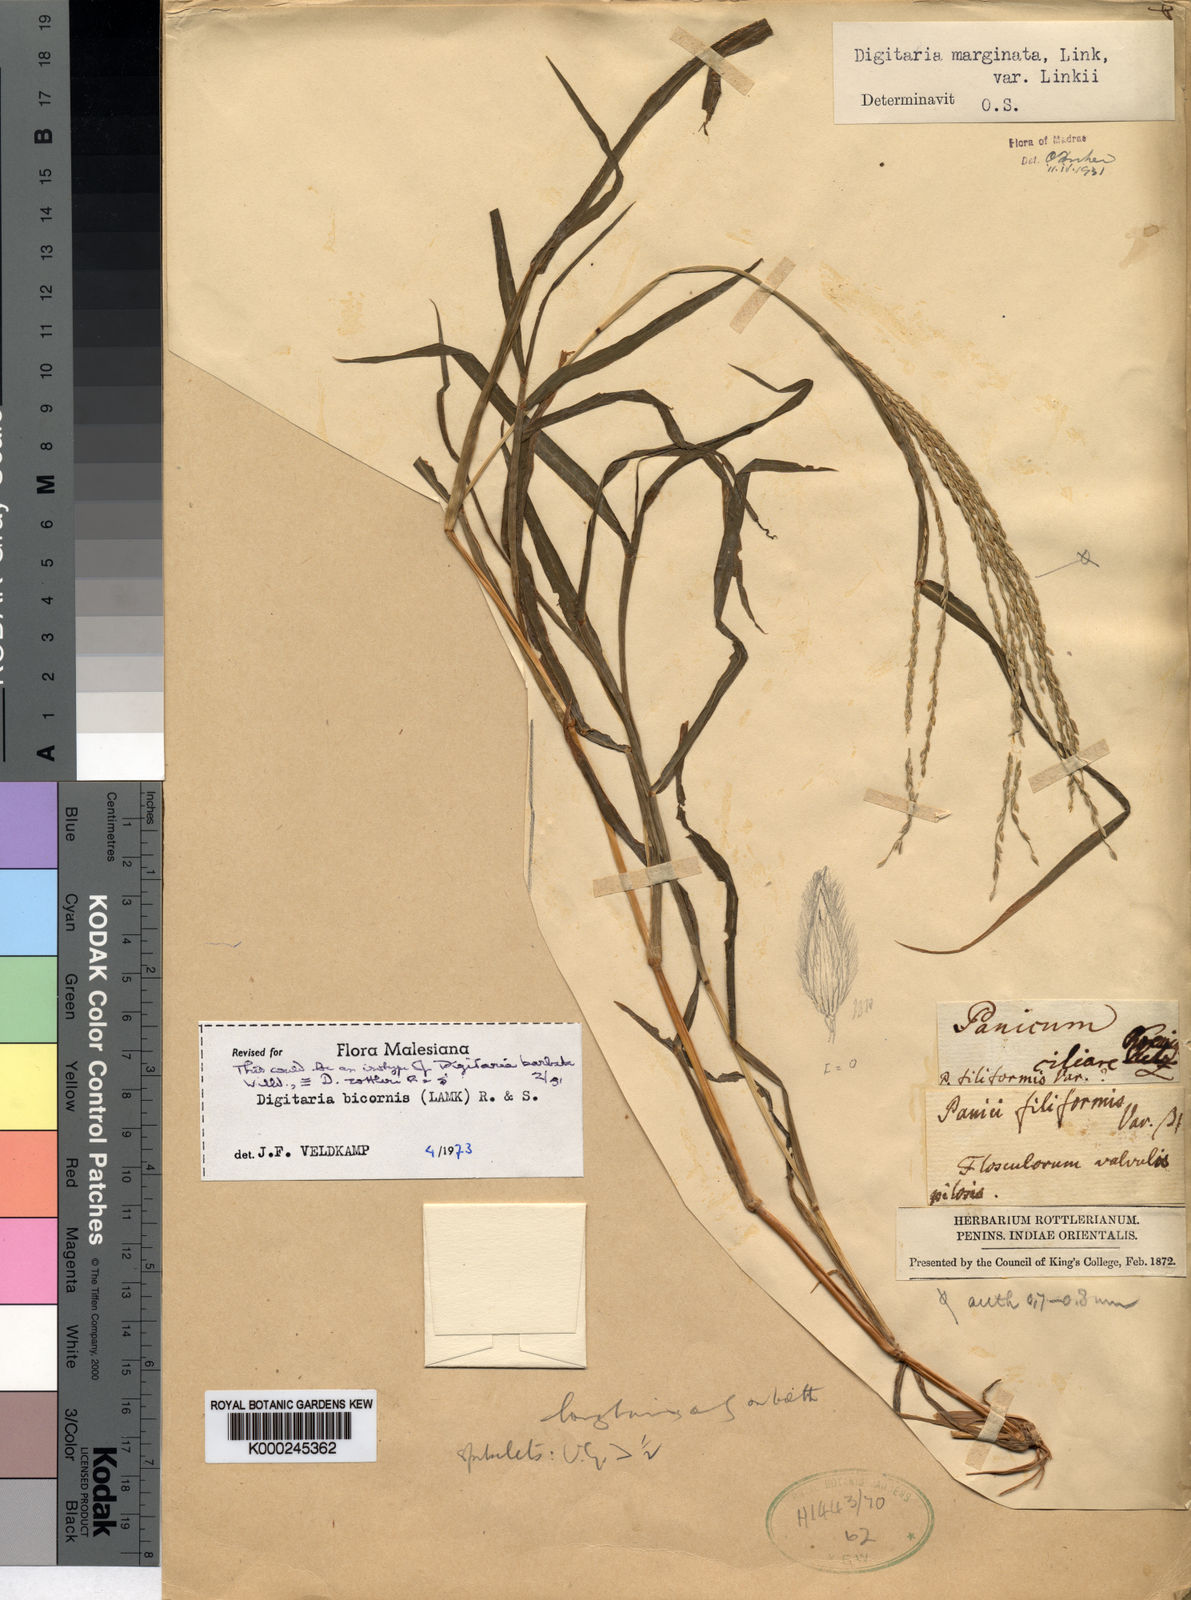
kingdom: Plantae
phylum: Tracheophyta
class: Liliopsida
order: Poales
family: Poaceae
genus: Digitaria
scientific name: Digitaria ciliaris
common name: Tropical finger-grass
